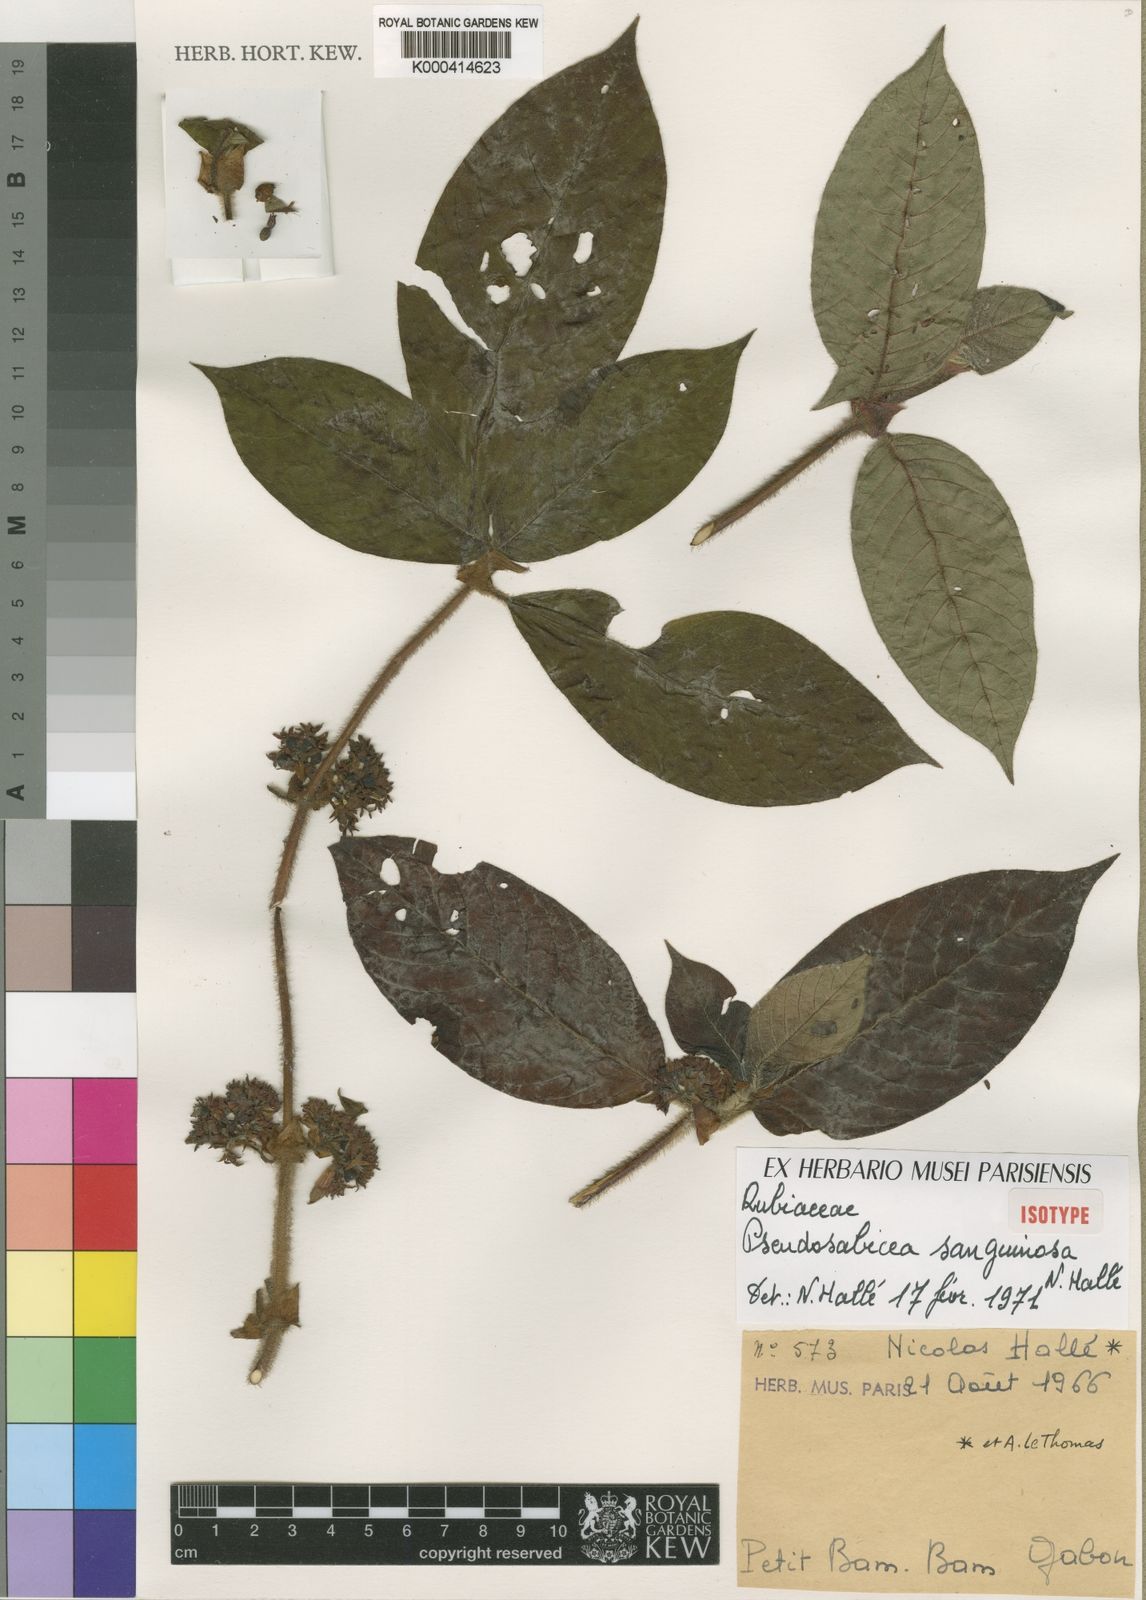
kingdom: Plantae
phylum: Tracheophyta
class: Magnoliopsida
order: Gentianales
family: Rubiaceae
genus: Sabicea
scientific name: Sabicea
